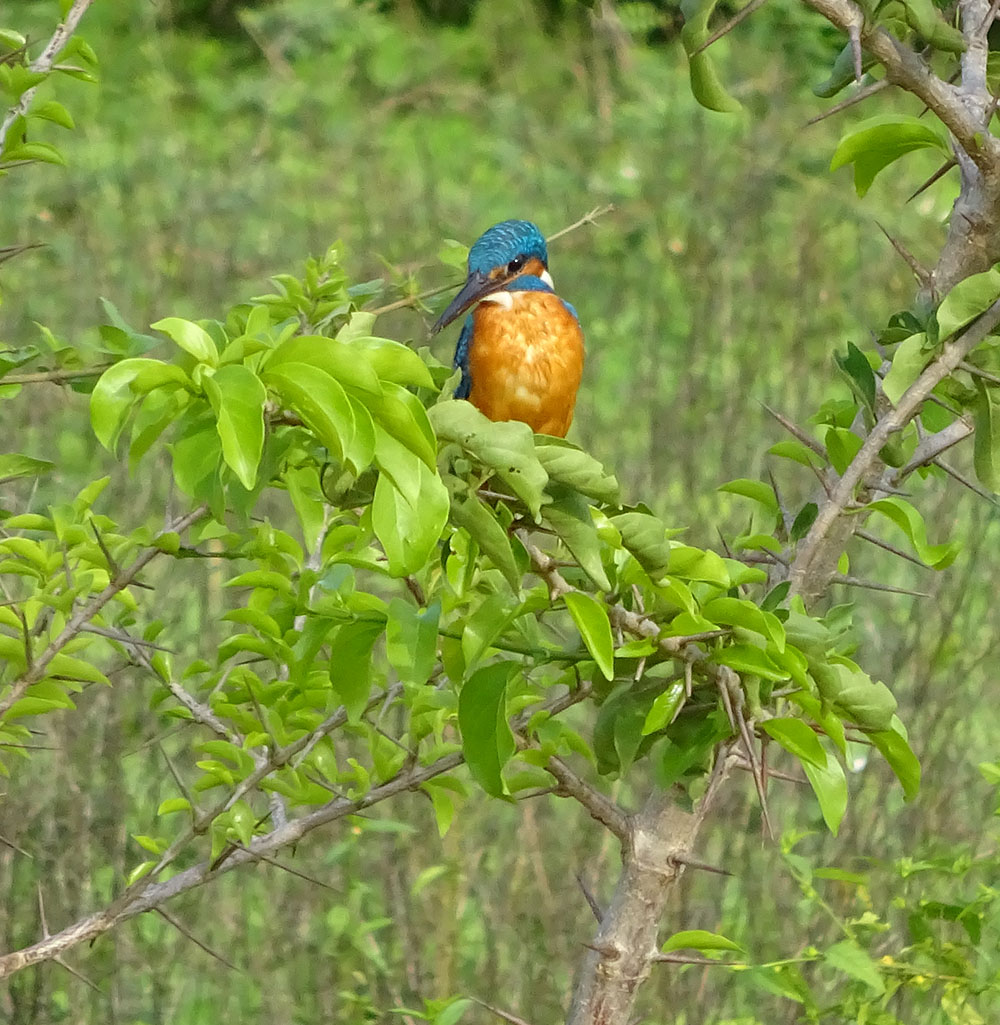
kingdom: Animalia
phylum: Chordata
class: Aves
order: Coraciiformes
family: Alcedinidae
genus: Alcedo
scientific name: Alcedo atthis
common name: Common kingfisher
